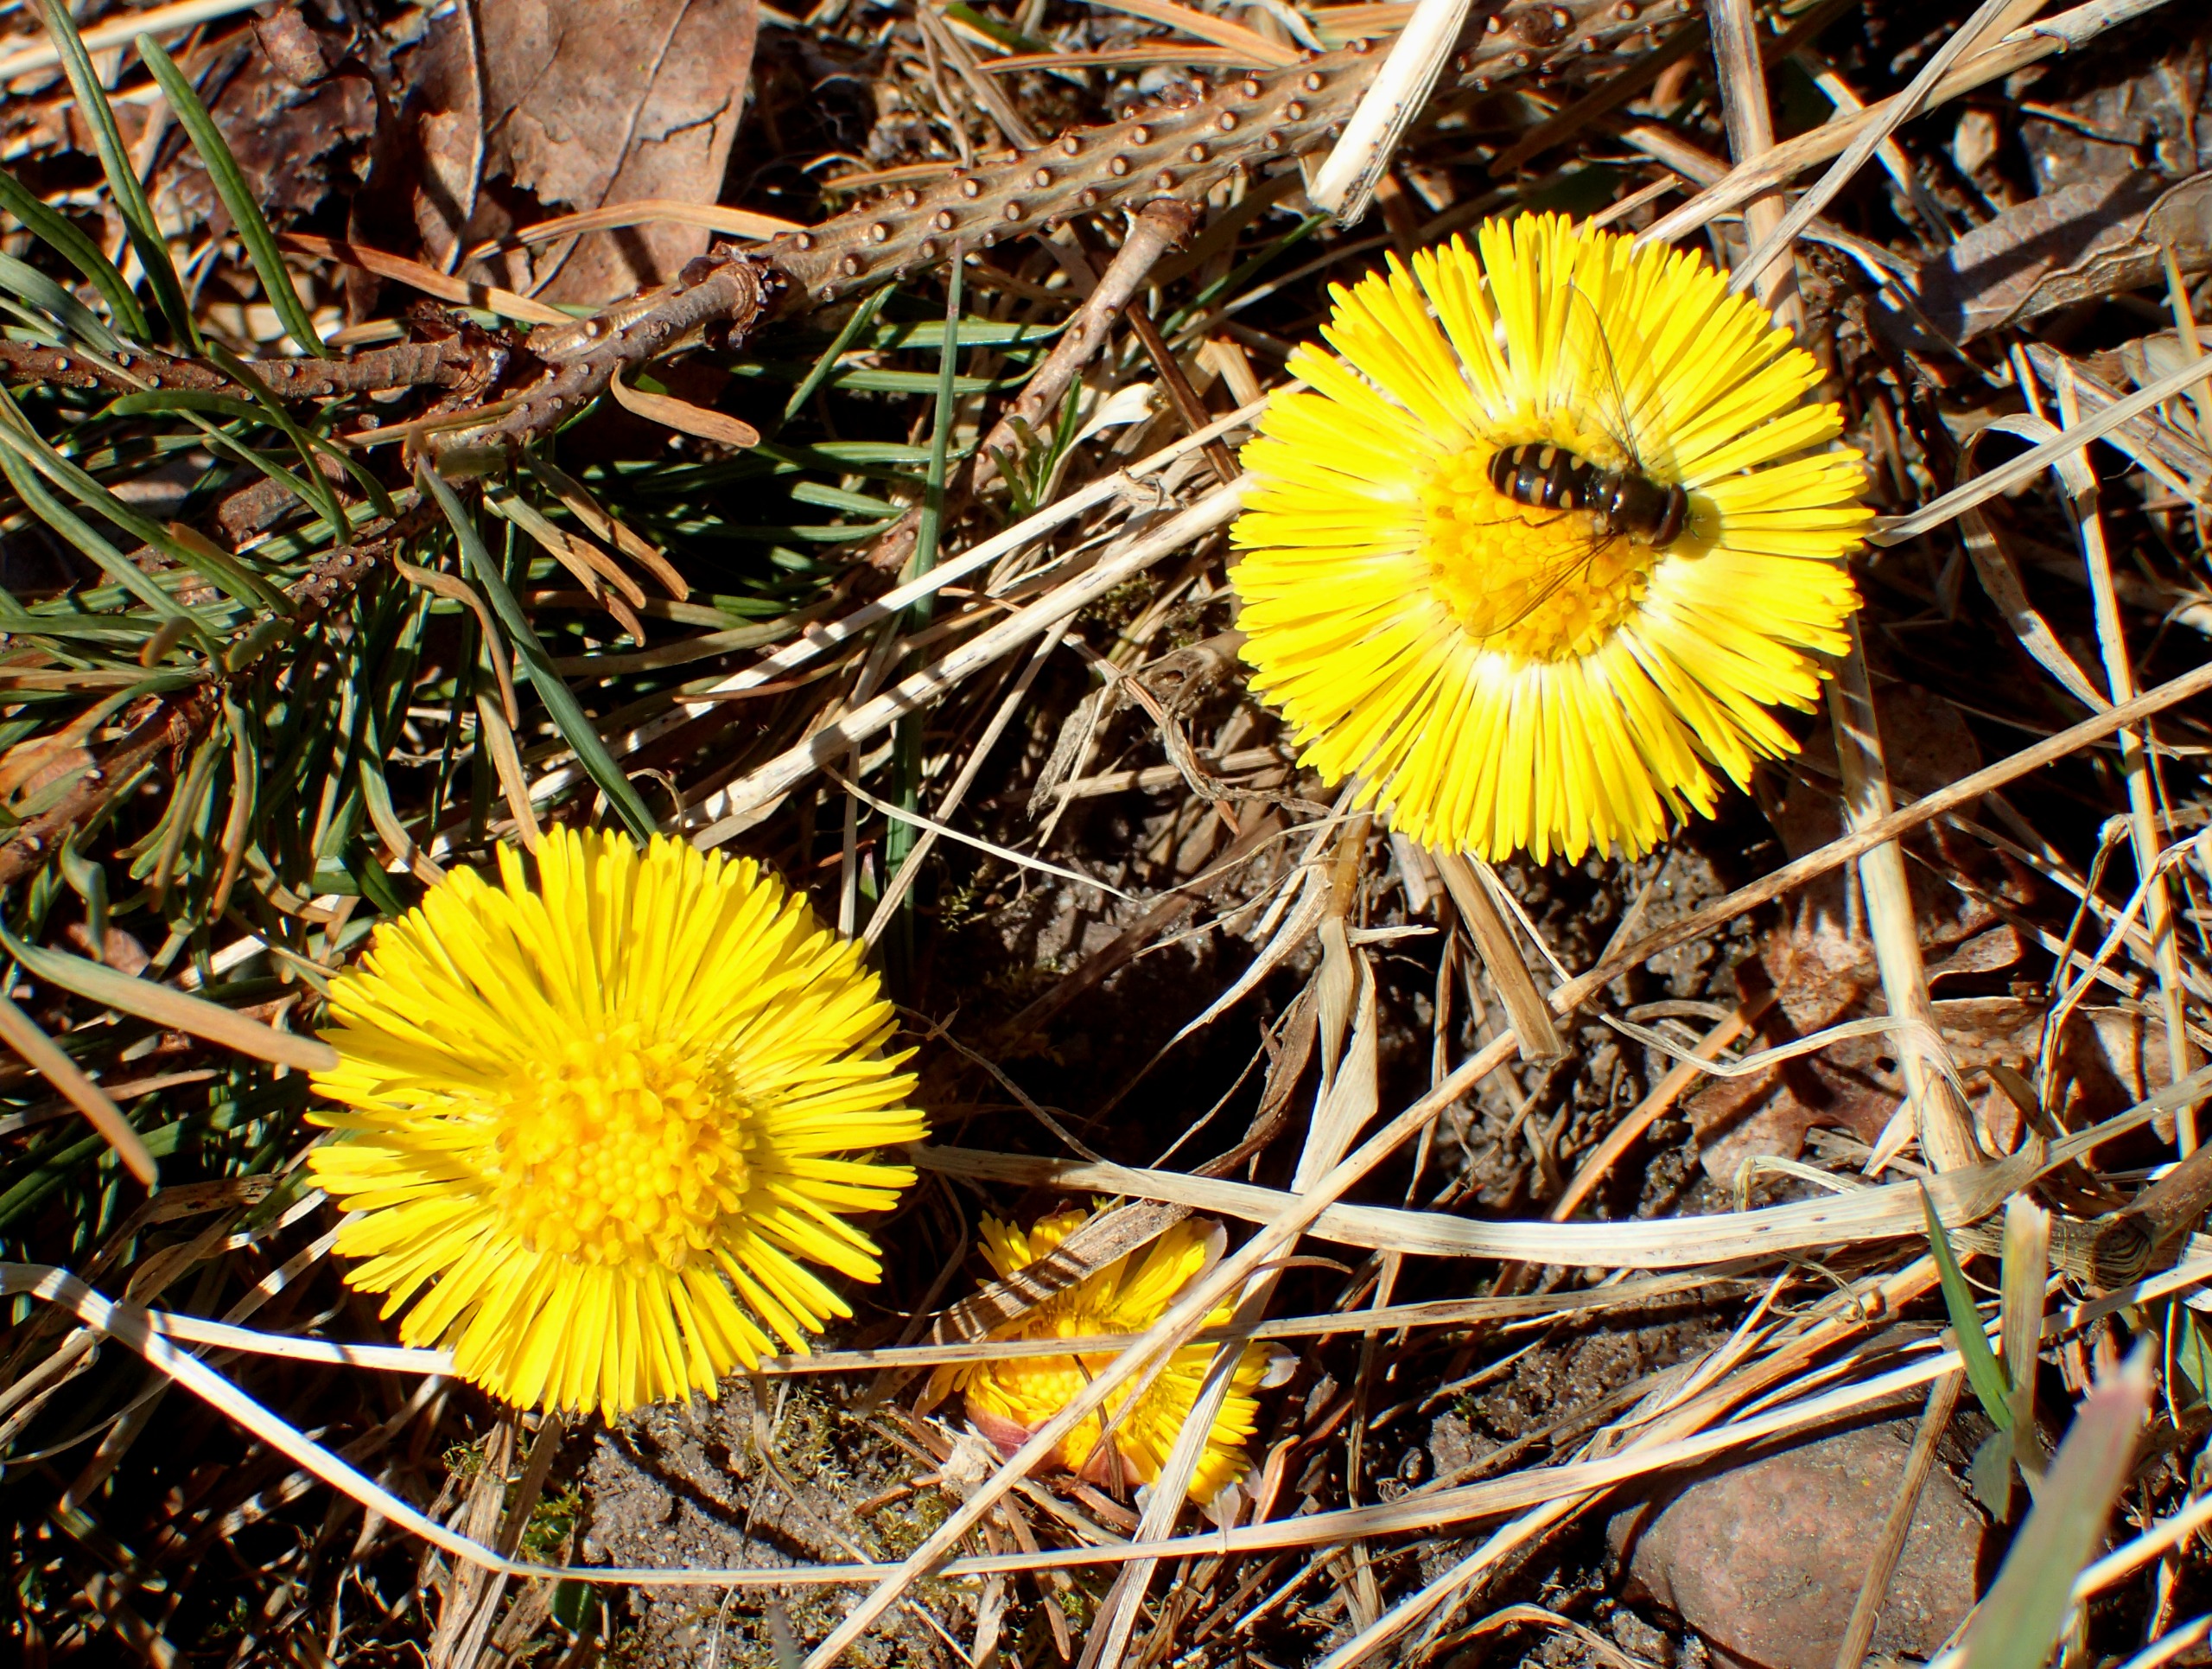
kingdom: Plantae
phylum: Tracheophyta
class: Magnoliopsida
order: Asterales
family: Asteraceae
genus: Tussilago
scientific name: Tussilago farfara
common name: Følfod
